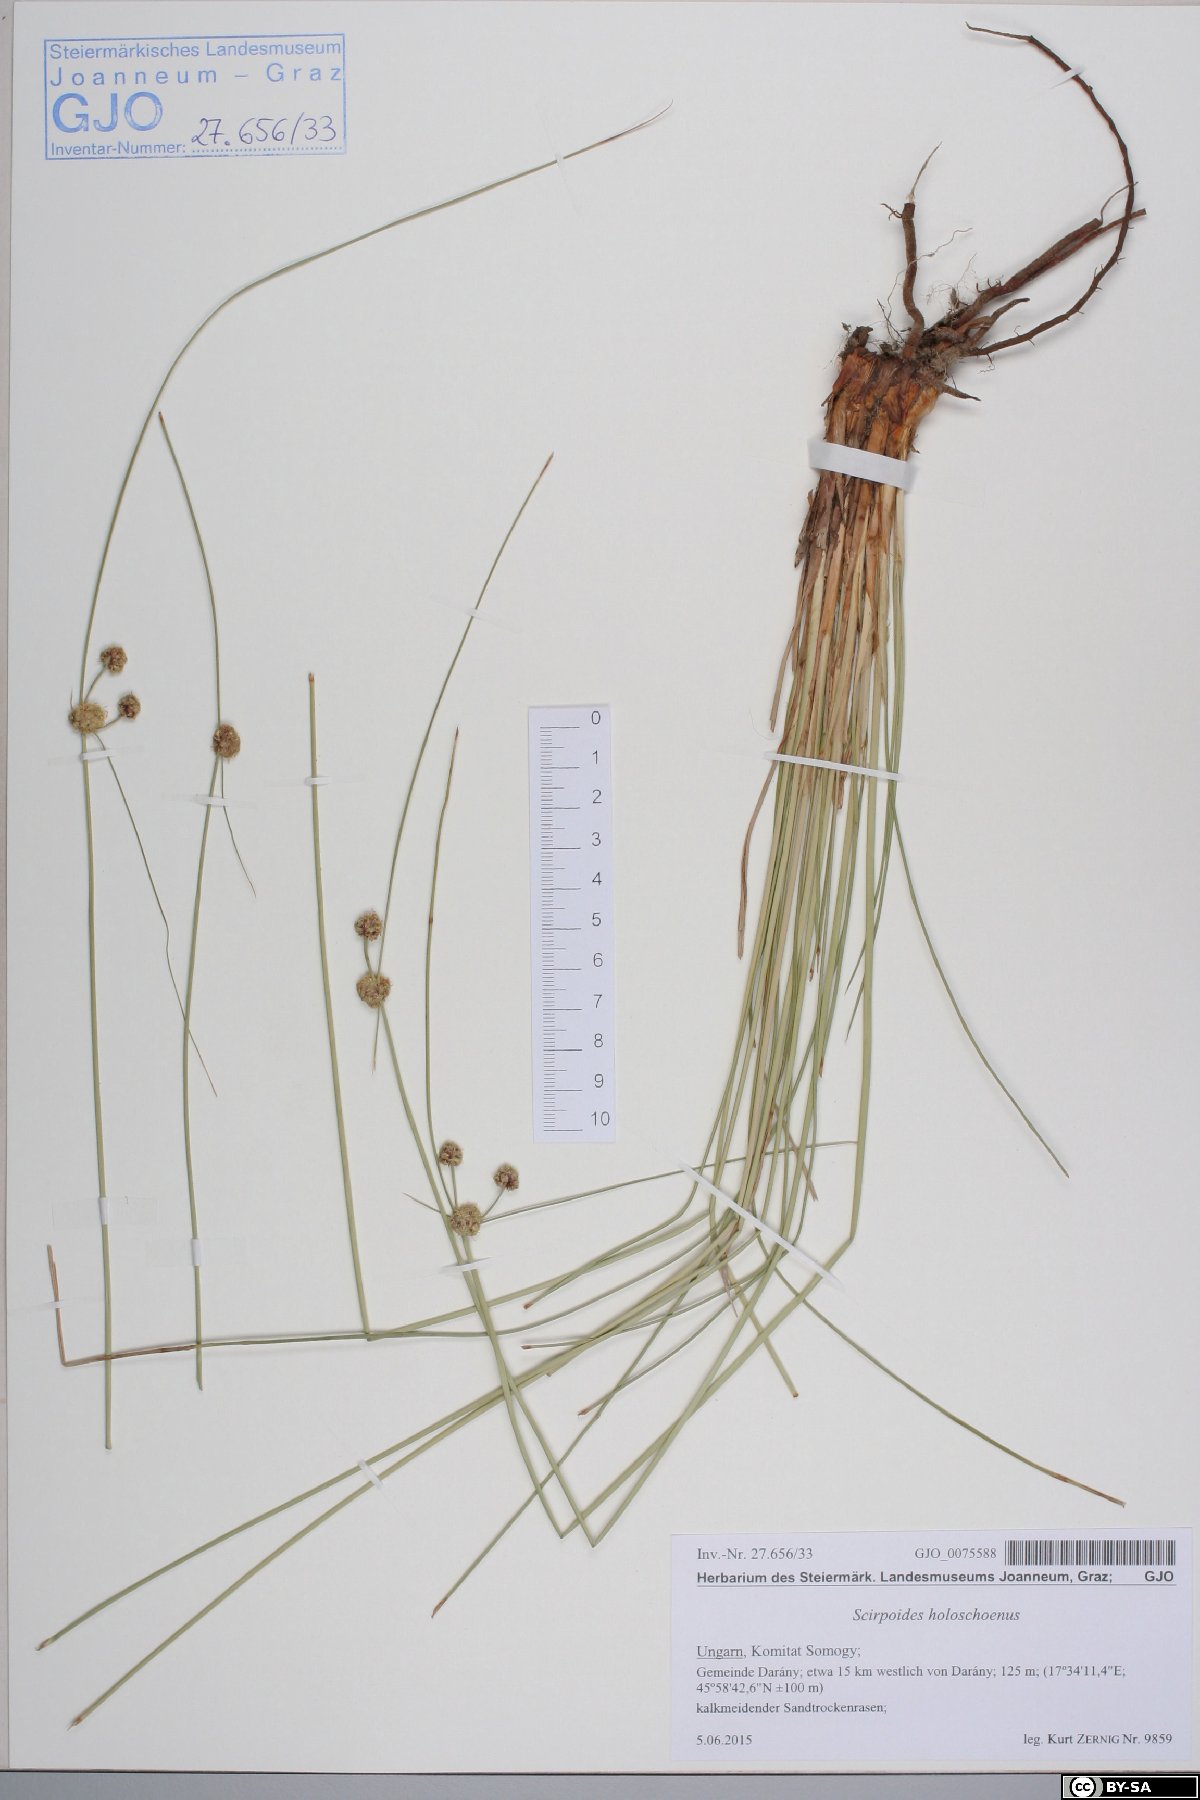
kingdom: Plantae
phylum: Tracheophyta
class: Liliopsida
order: Poales
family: Cyperaceae
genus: Scirpoides
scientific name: Scirpoides holoschoenus
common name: Round-headed club-rush
